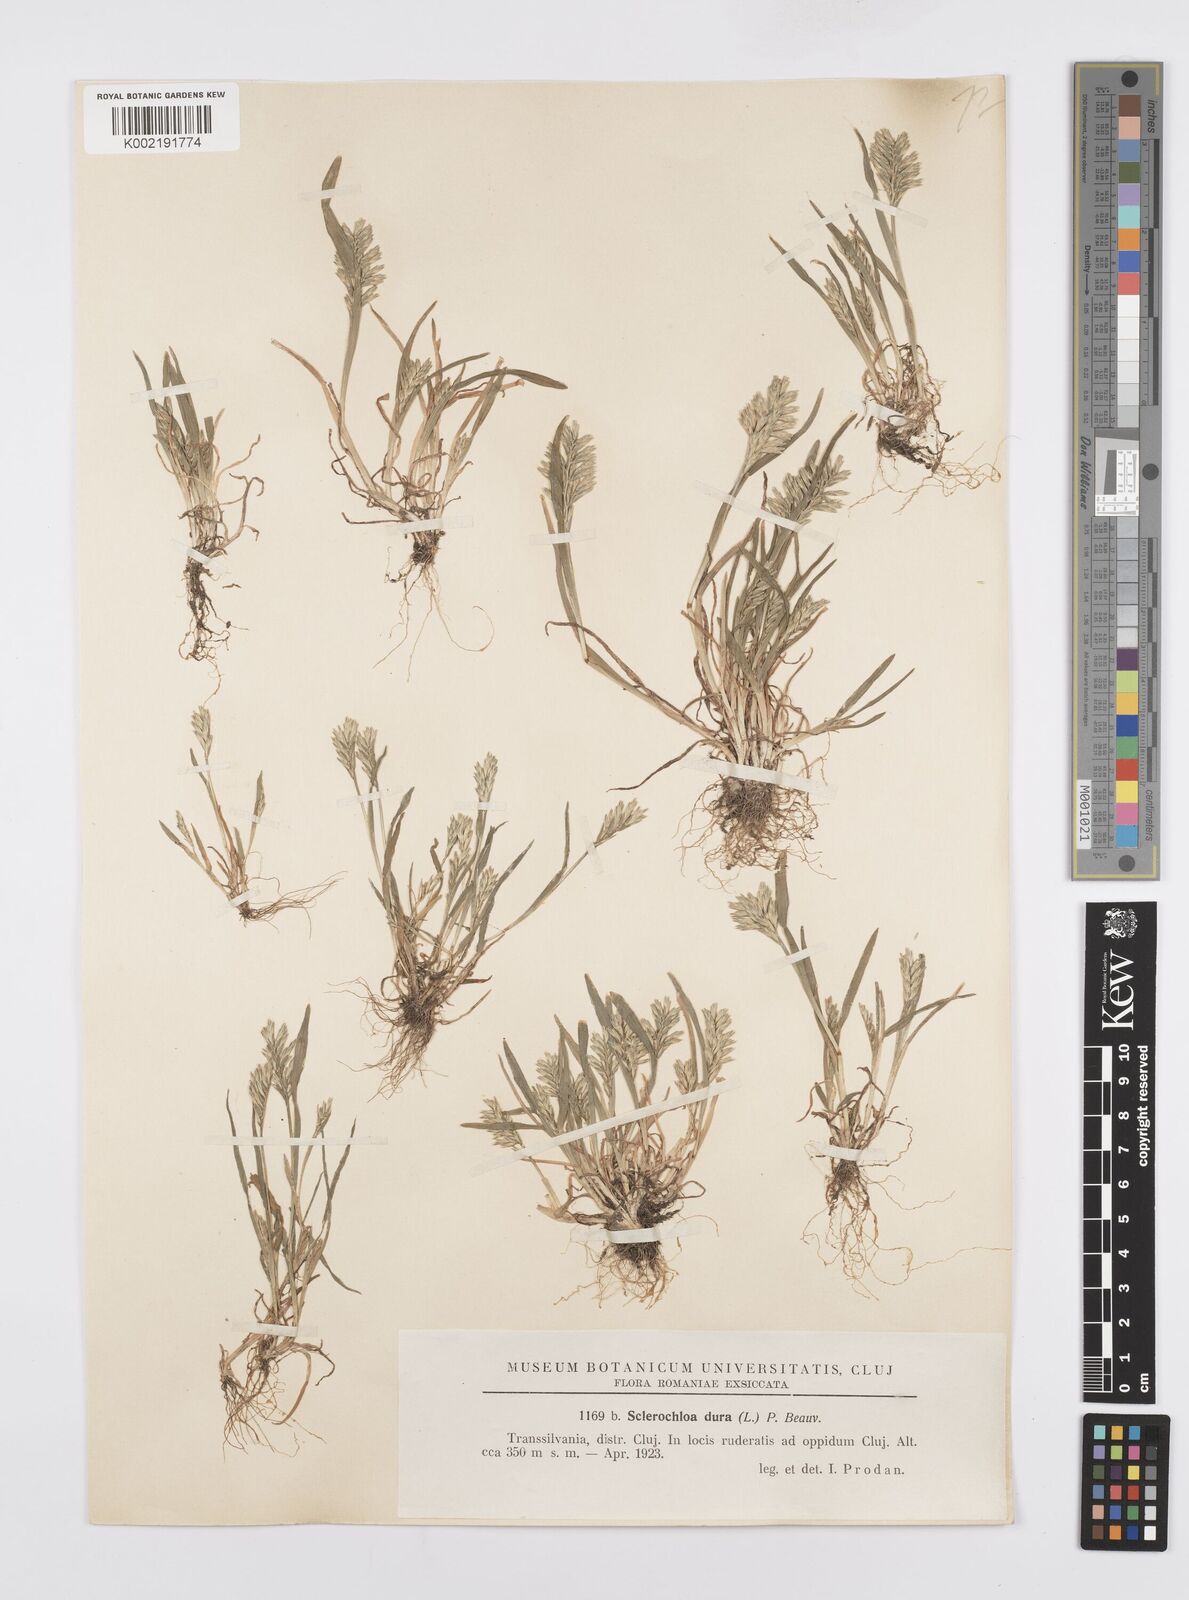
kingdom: Plantae
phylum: Tracheophyta
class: Liliopsida
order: Poales
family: Poaceae
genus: Sclerochloa
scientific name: Sclerochloa dura
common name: Common hardgrass
